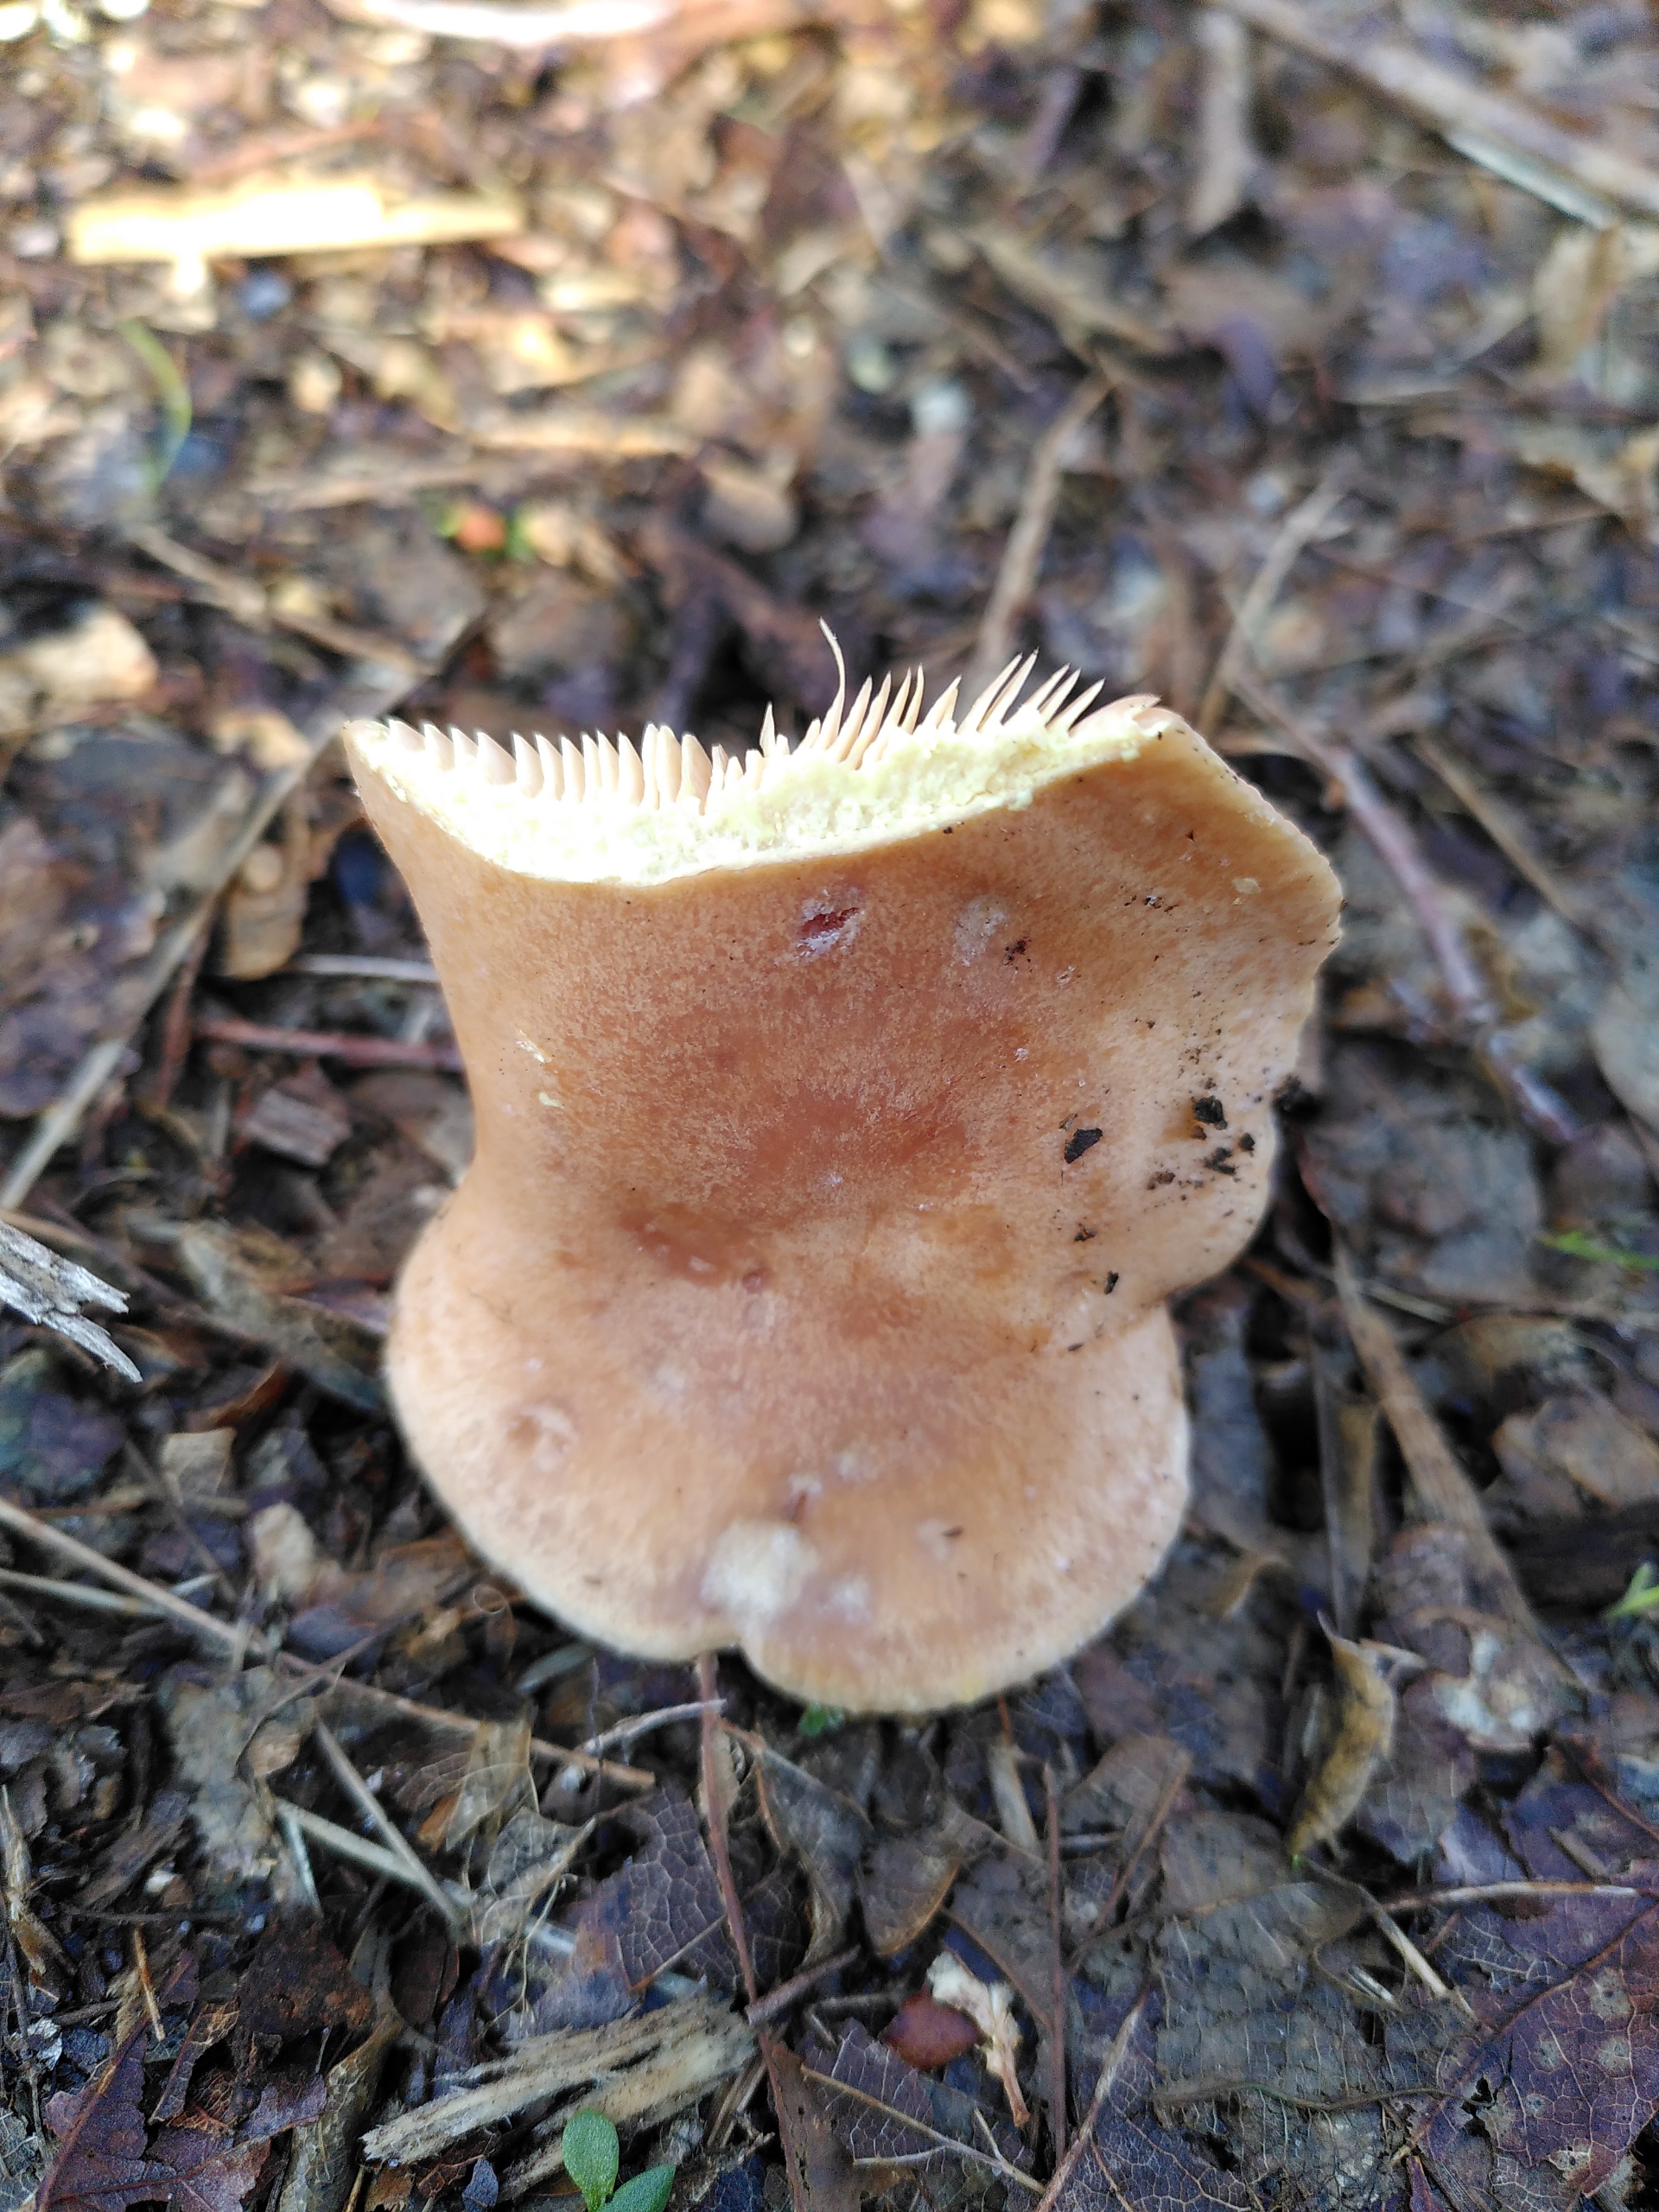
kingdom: Fungi
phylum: Basidiomycota
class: Agaricomycetes
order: Russulales
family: Russulaceae
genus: Lactarius
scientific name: Lactarius chrysorrheus
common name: Svovlmælket mælkehat
